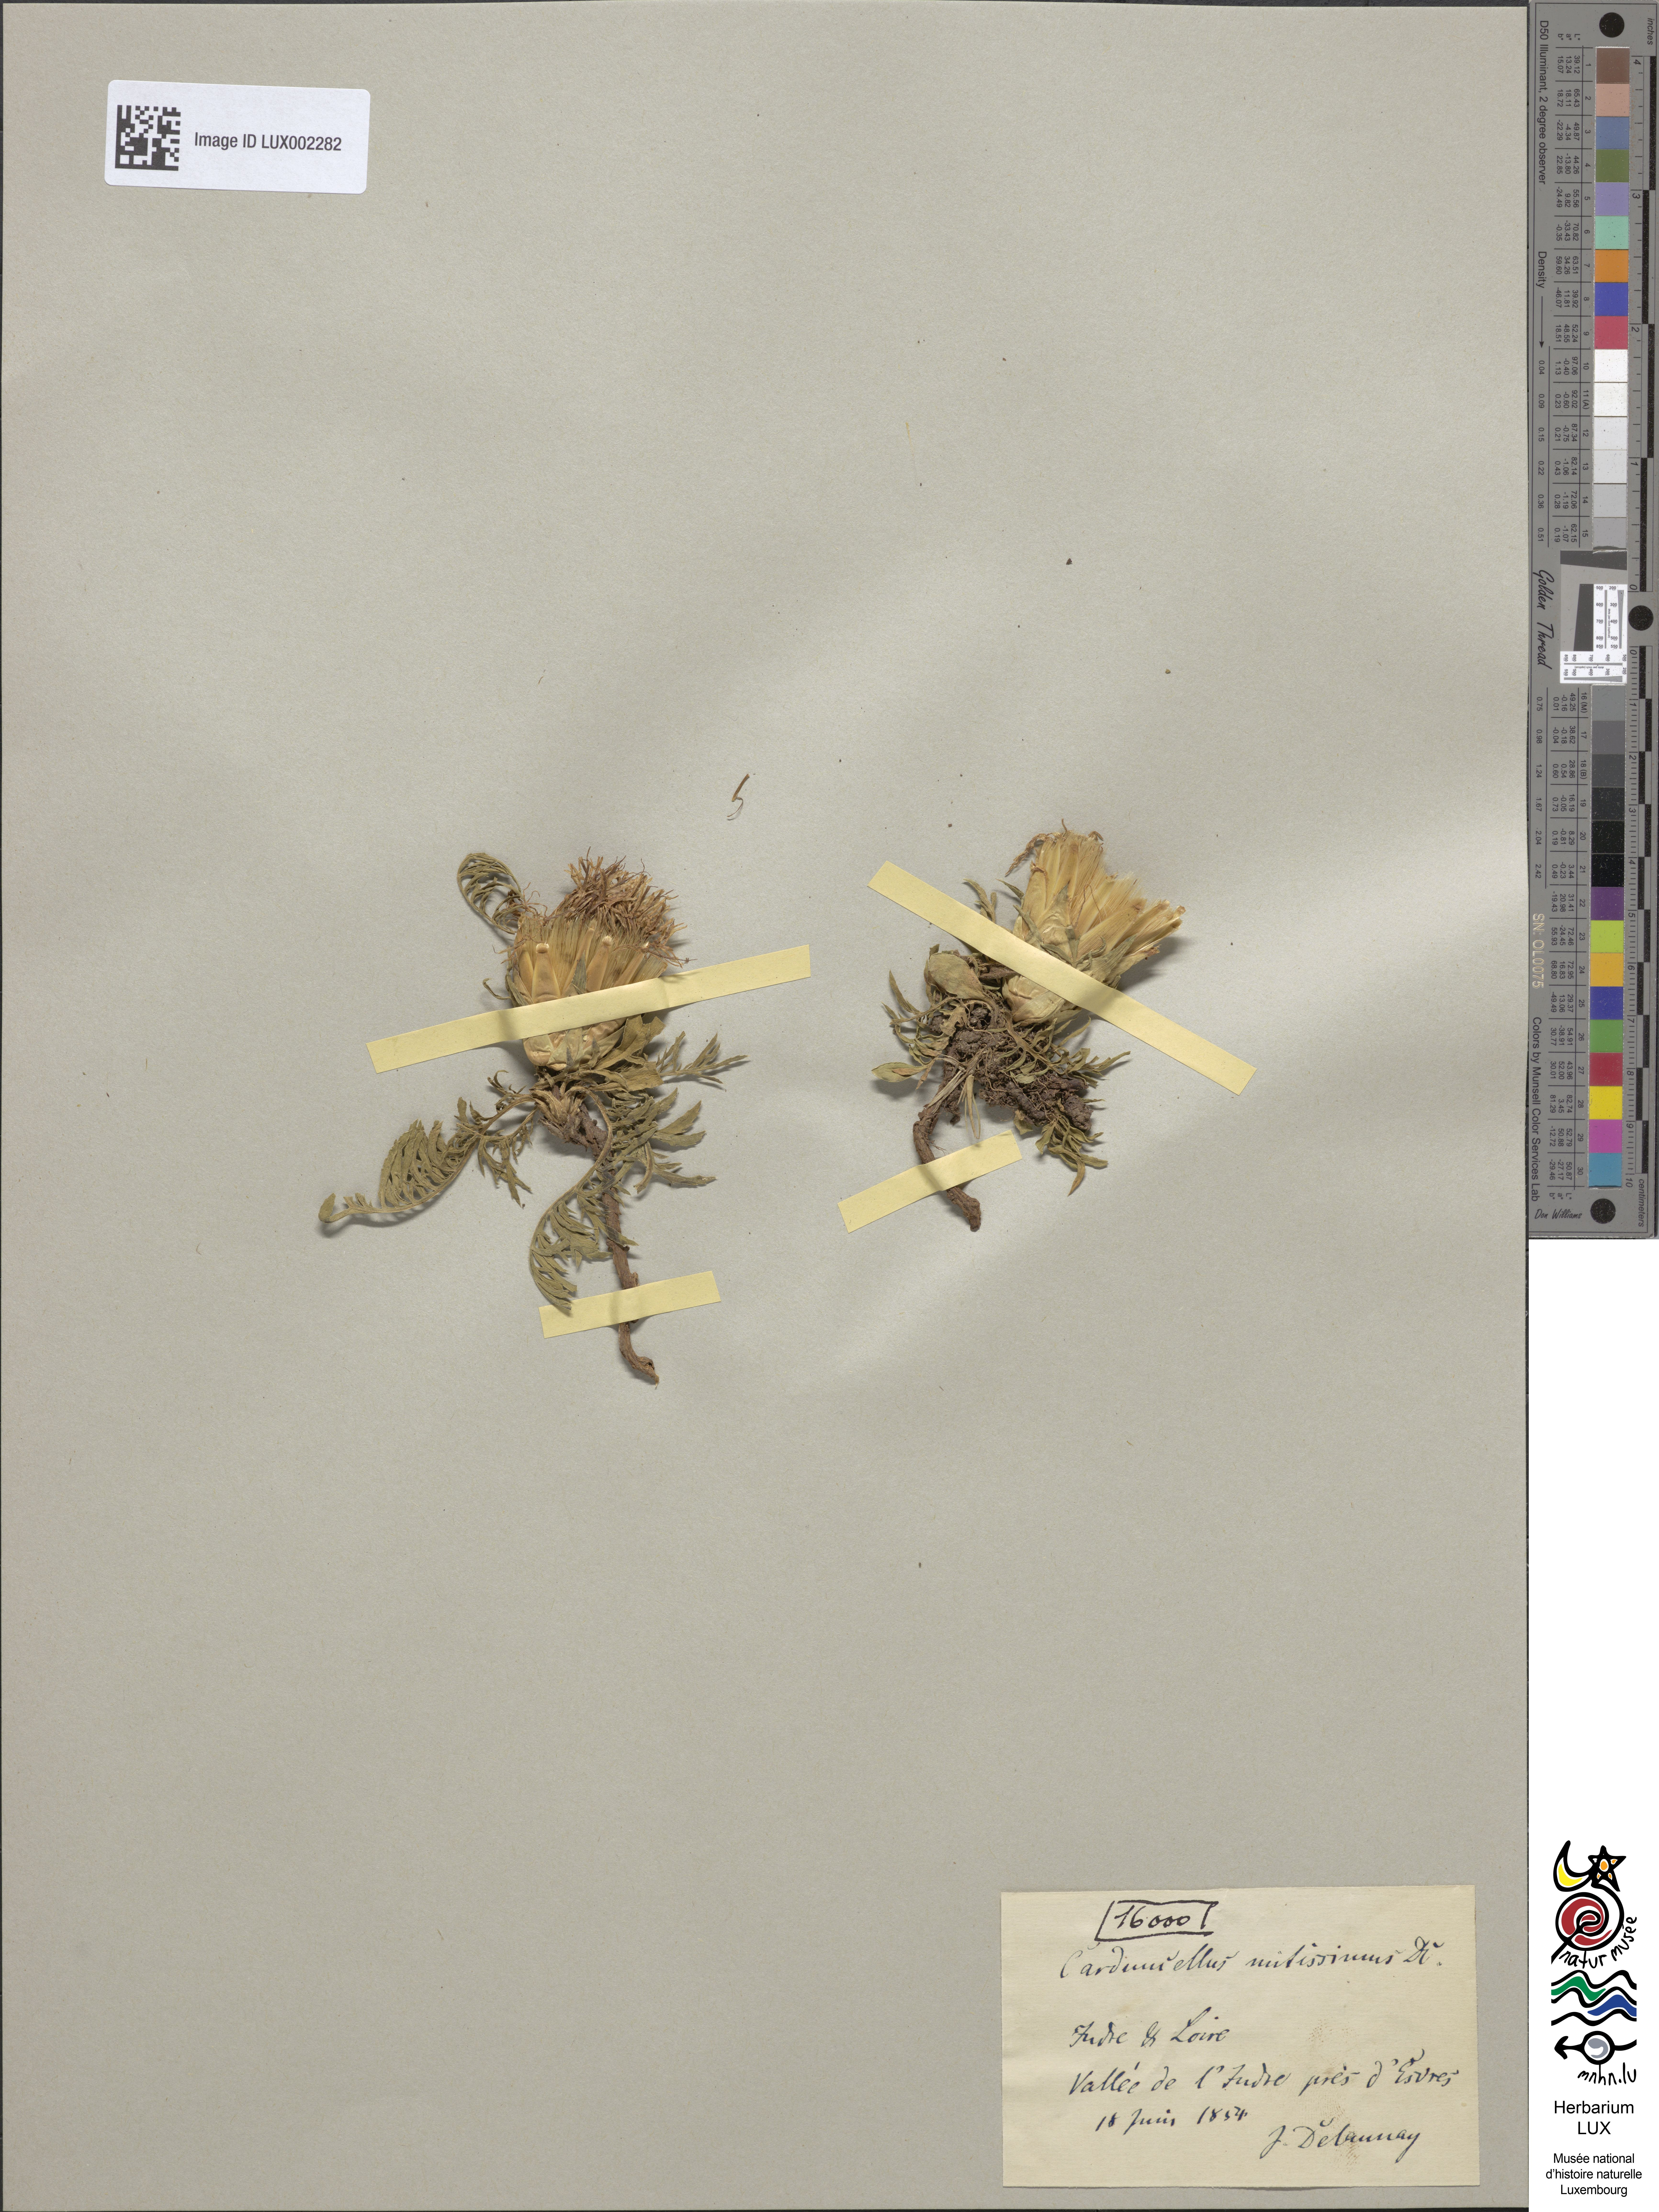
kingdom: Plantae
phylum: Tracheophyta
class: Magnoliopsida
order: Asterales
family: Asteraceae
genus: Carduncellus
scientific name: Carduncellus mitissimus
